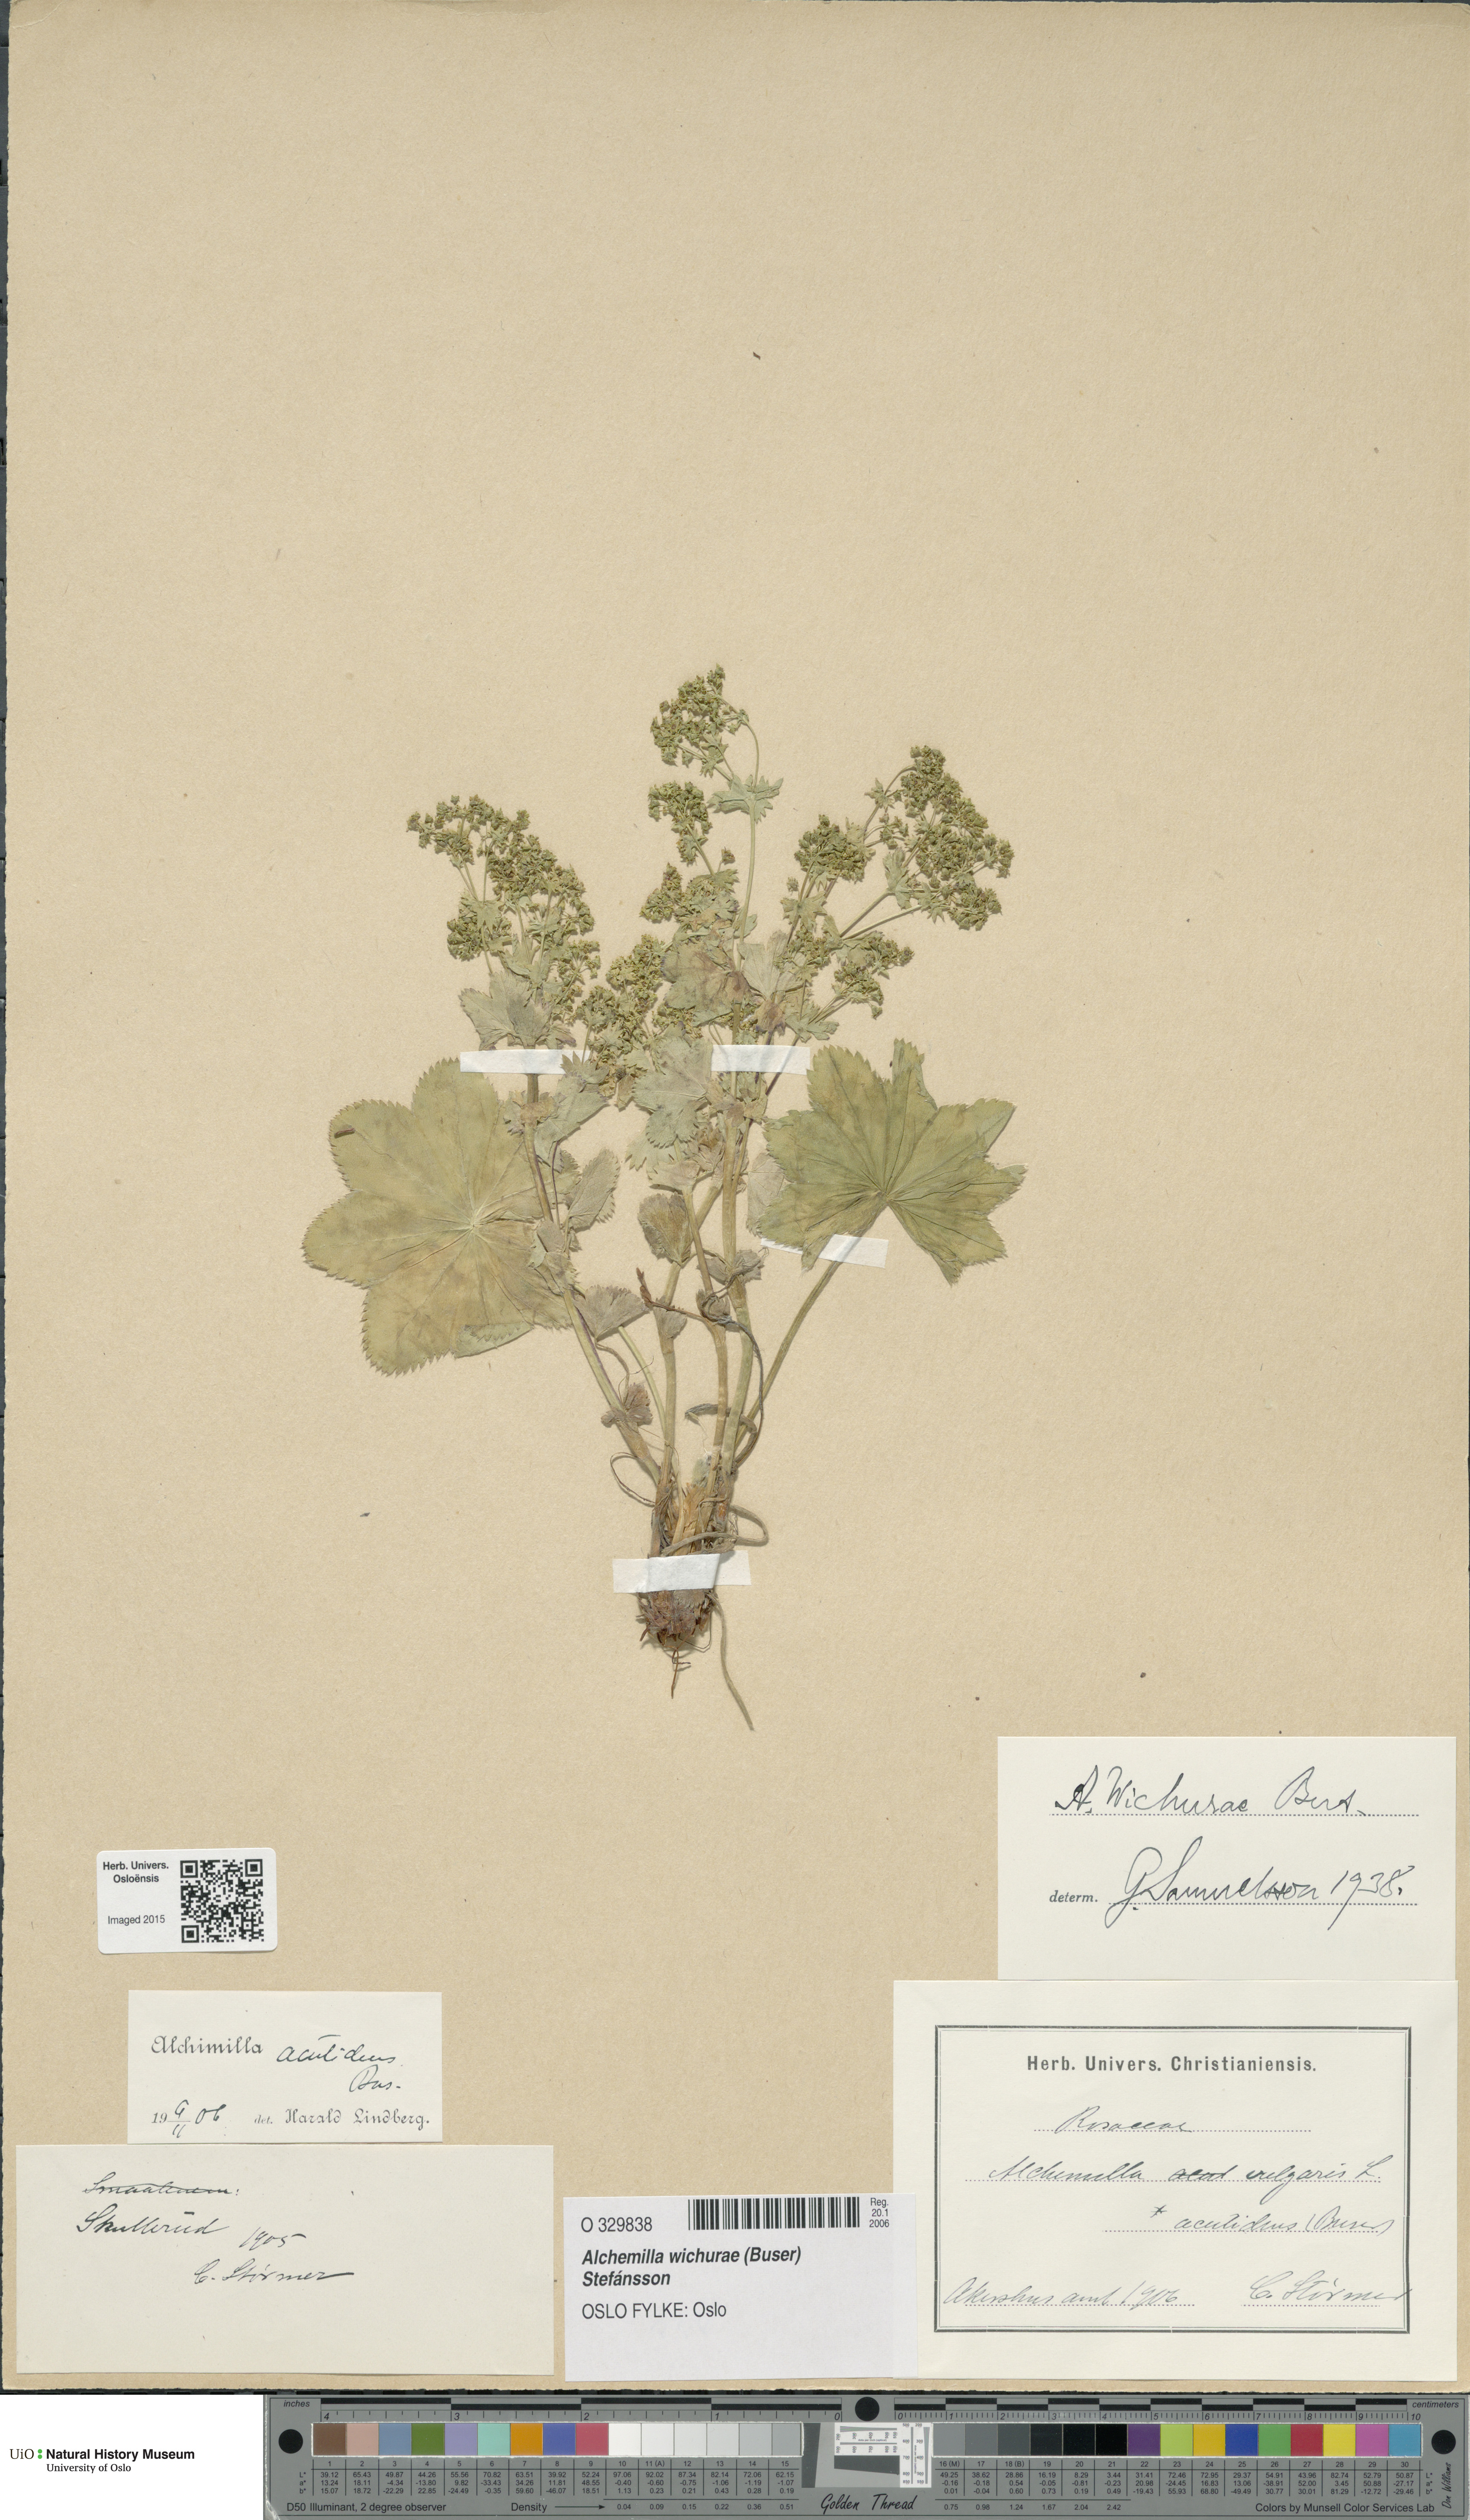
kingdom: Plantae
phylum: Tracheophyta
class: Magnoliopsida
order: Rosales
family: Rosaceae
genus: Alchemilla
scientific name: Alchemilla wichurae
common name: Rock lady's mantle
